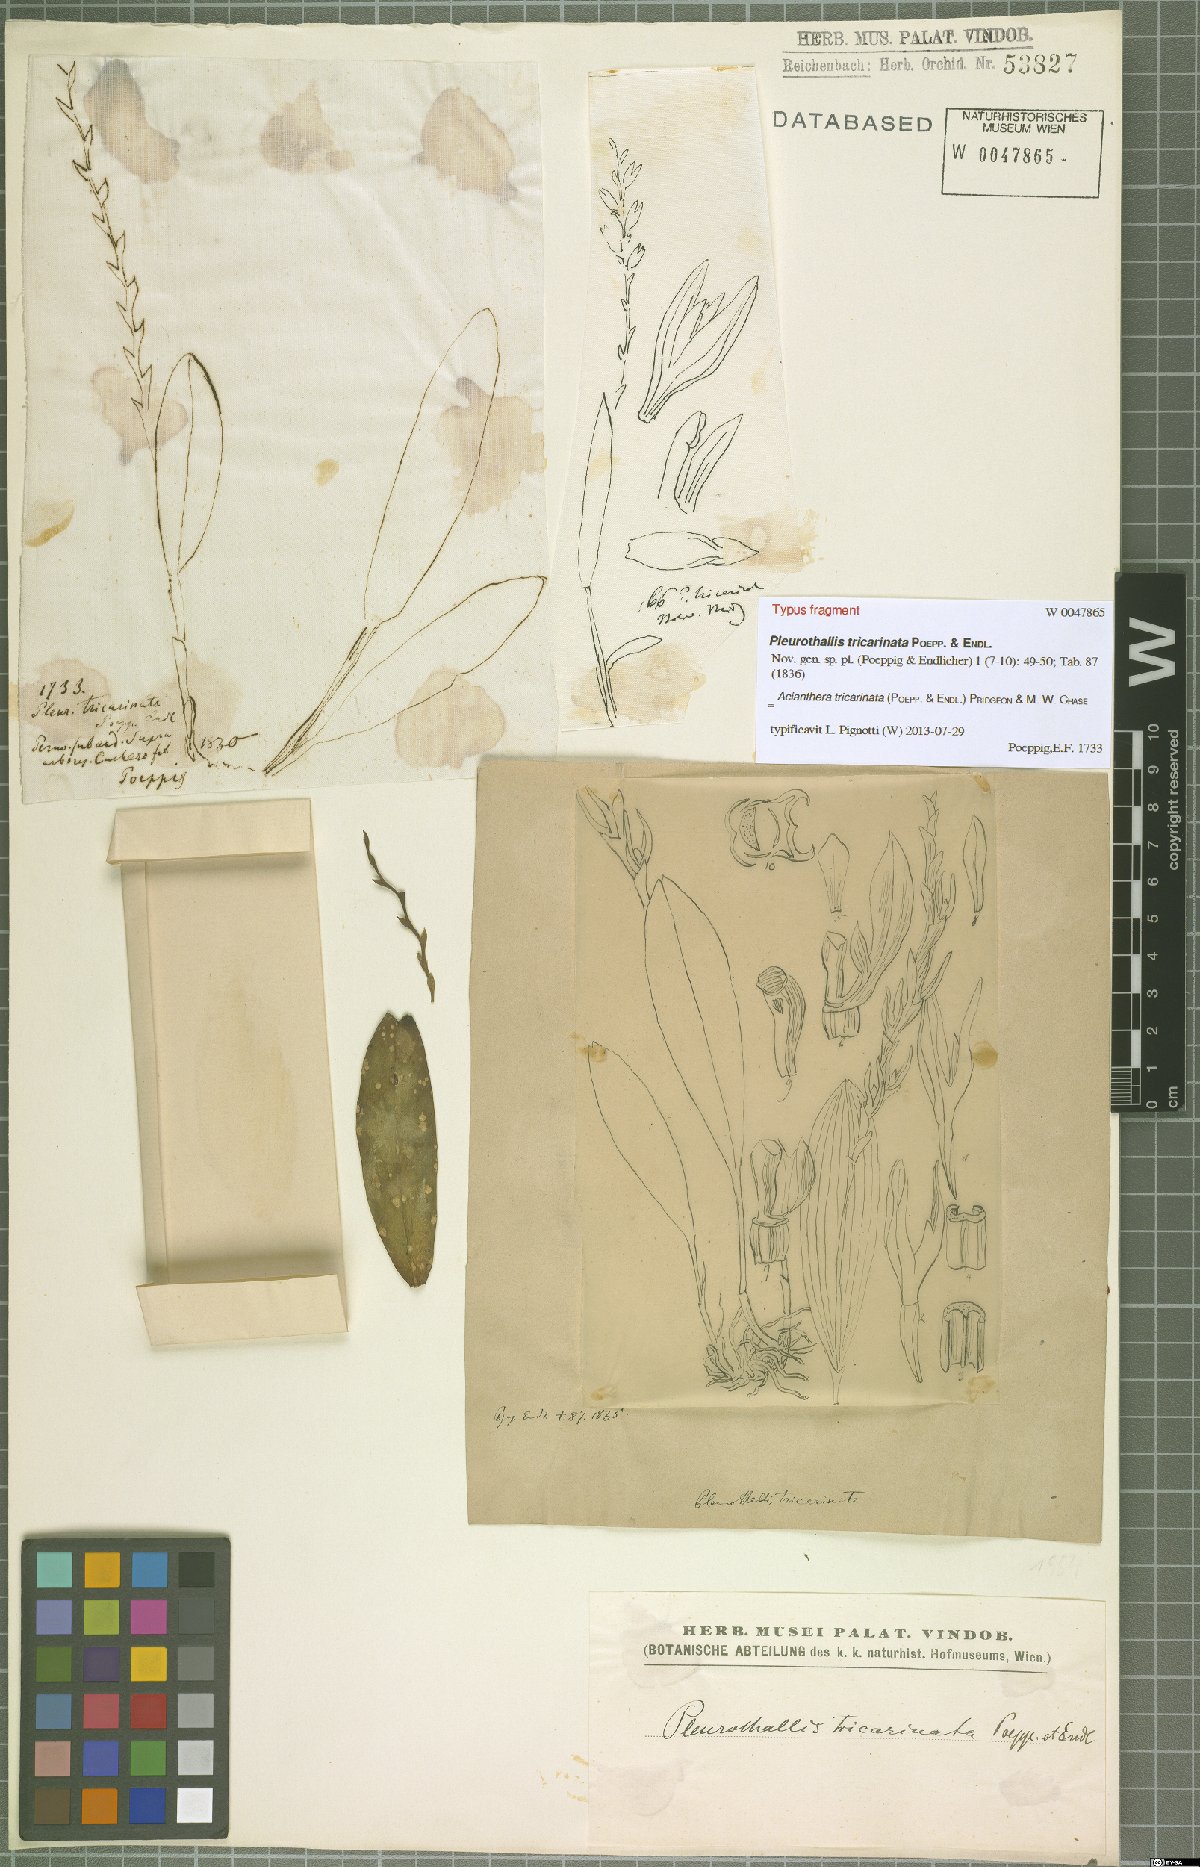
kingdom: Plantae
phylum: Tracheophyta
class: Liliopsida
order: Asparagales
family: Orchidaceae
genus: Acianthera
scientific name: Acianthera tricarinata
